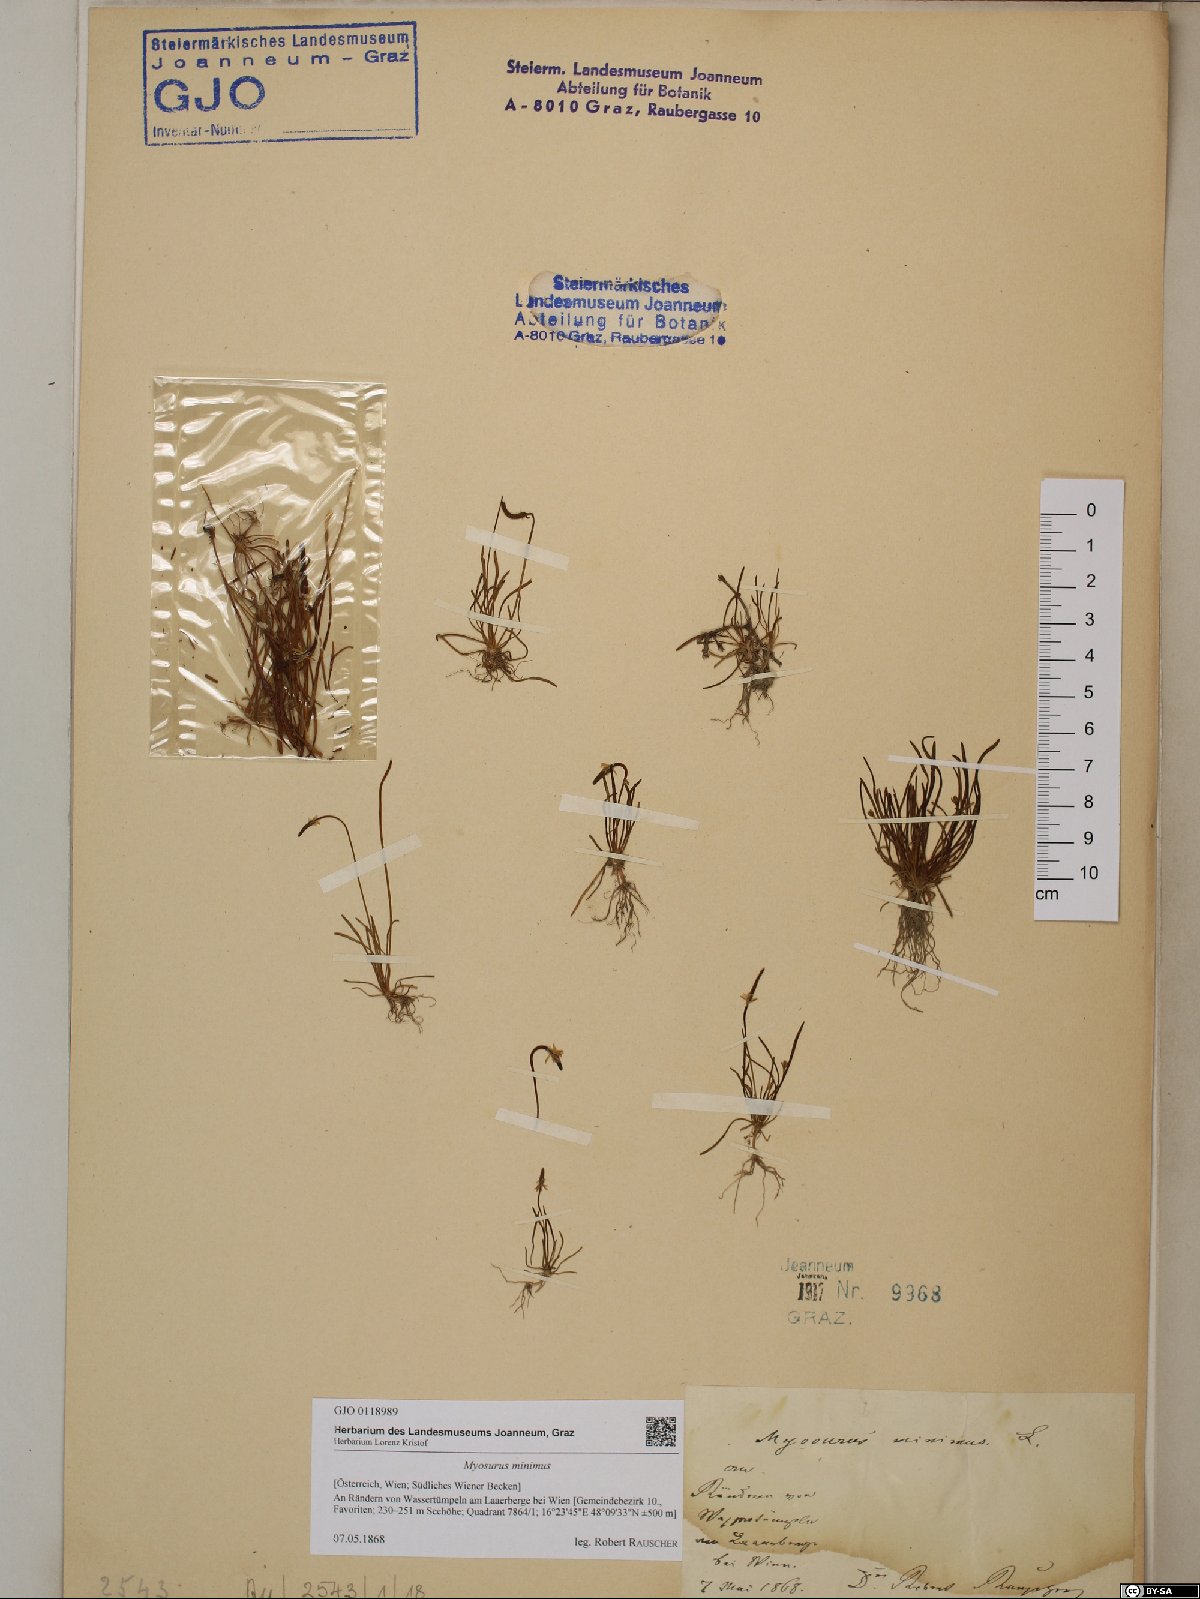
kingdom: Plantae
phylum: Tracheophyta
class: Magnoliopsida
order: Ranunculales
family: Ranunculaceae
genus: Myosurus
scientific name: Myosurus minimus
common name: Mousetail
